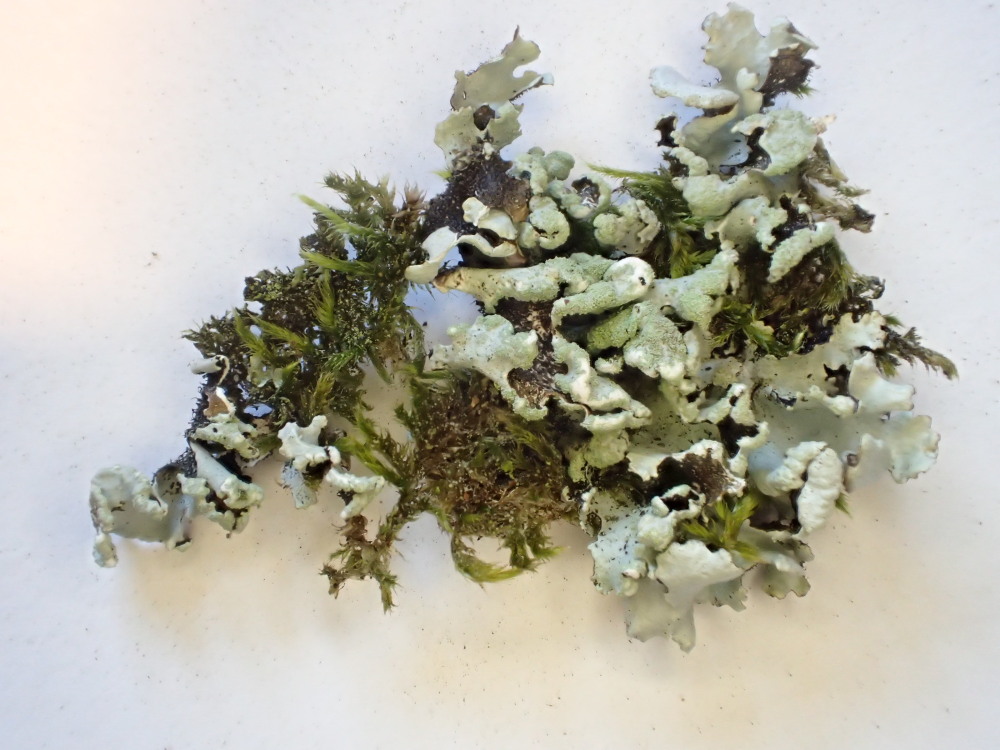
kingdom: Fungi
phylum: Ascomycota
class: Lecanoromycetes
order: Lecanorales
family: Parmeliaceae
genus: Hypotrachyna
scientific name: Hypotrachyna revoluta
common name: bleggrå skållav
